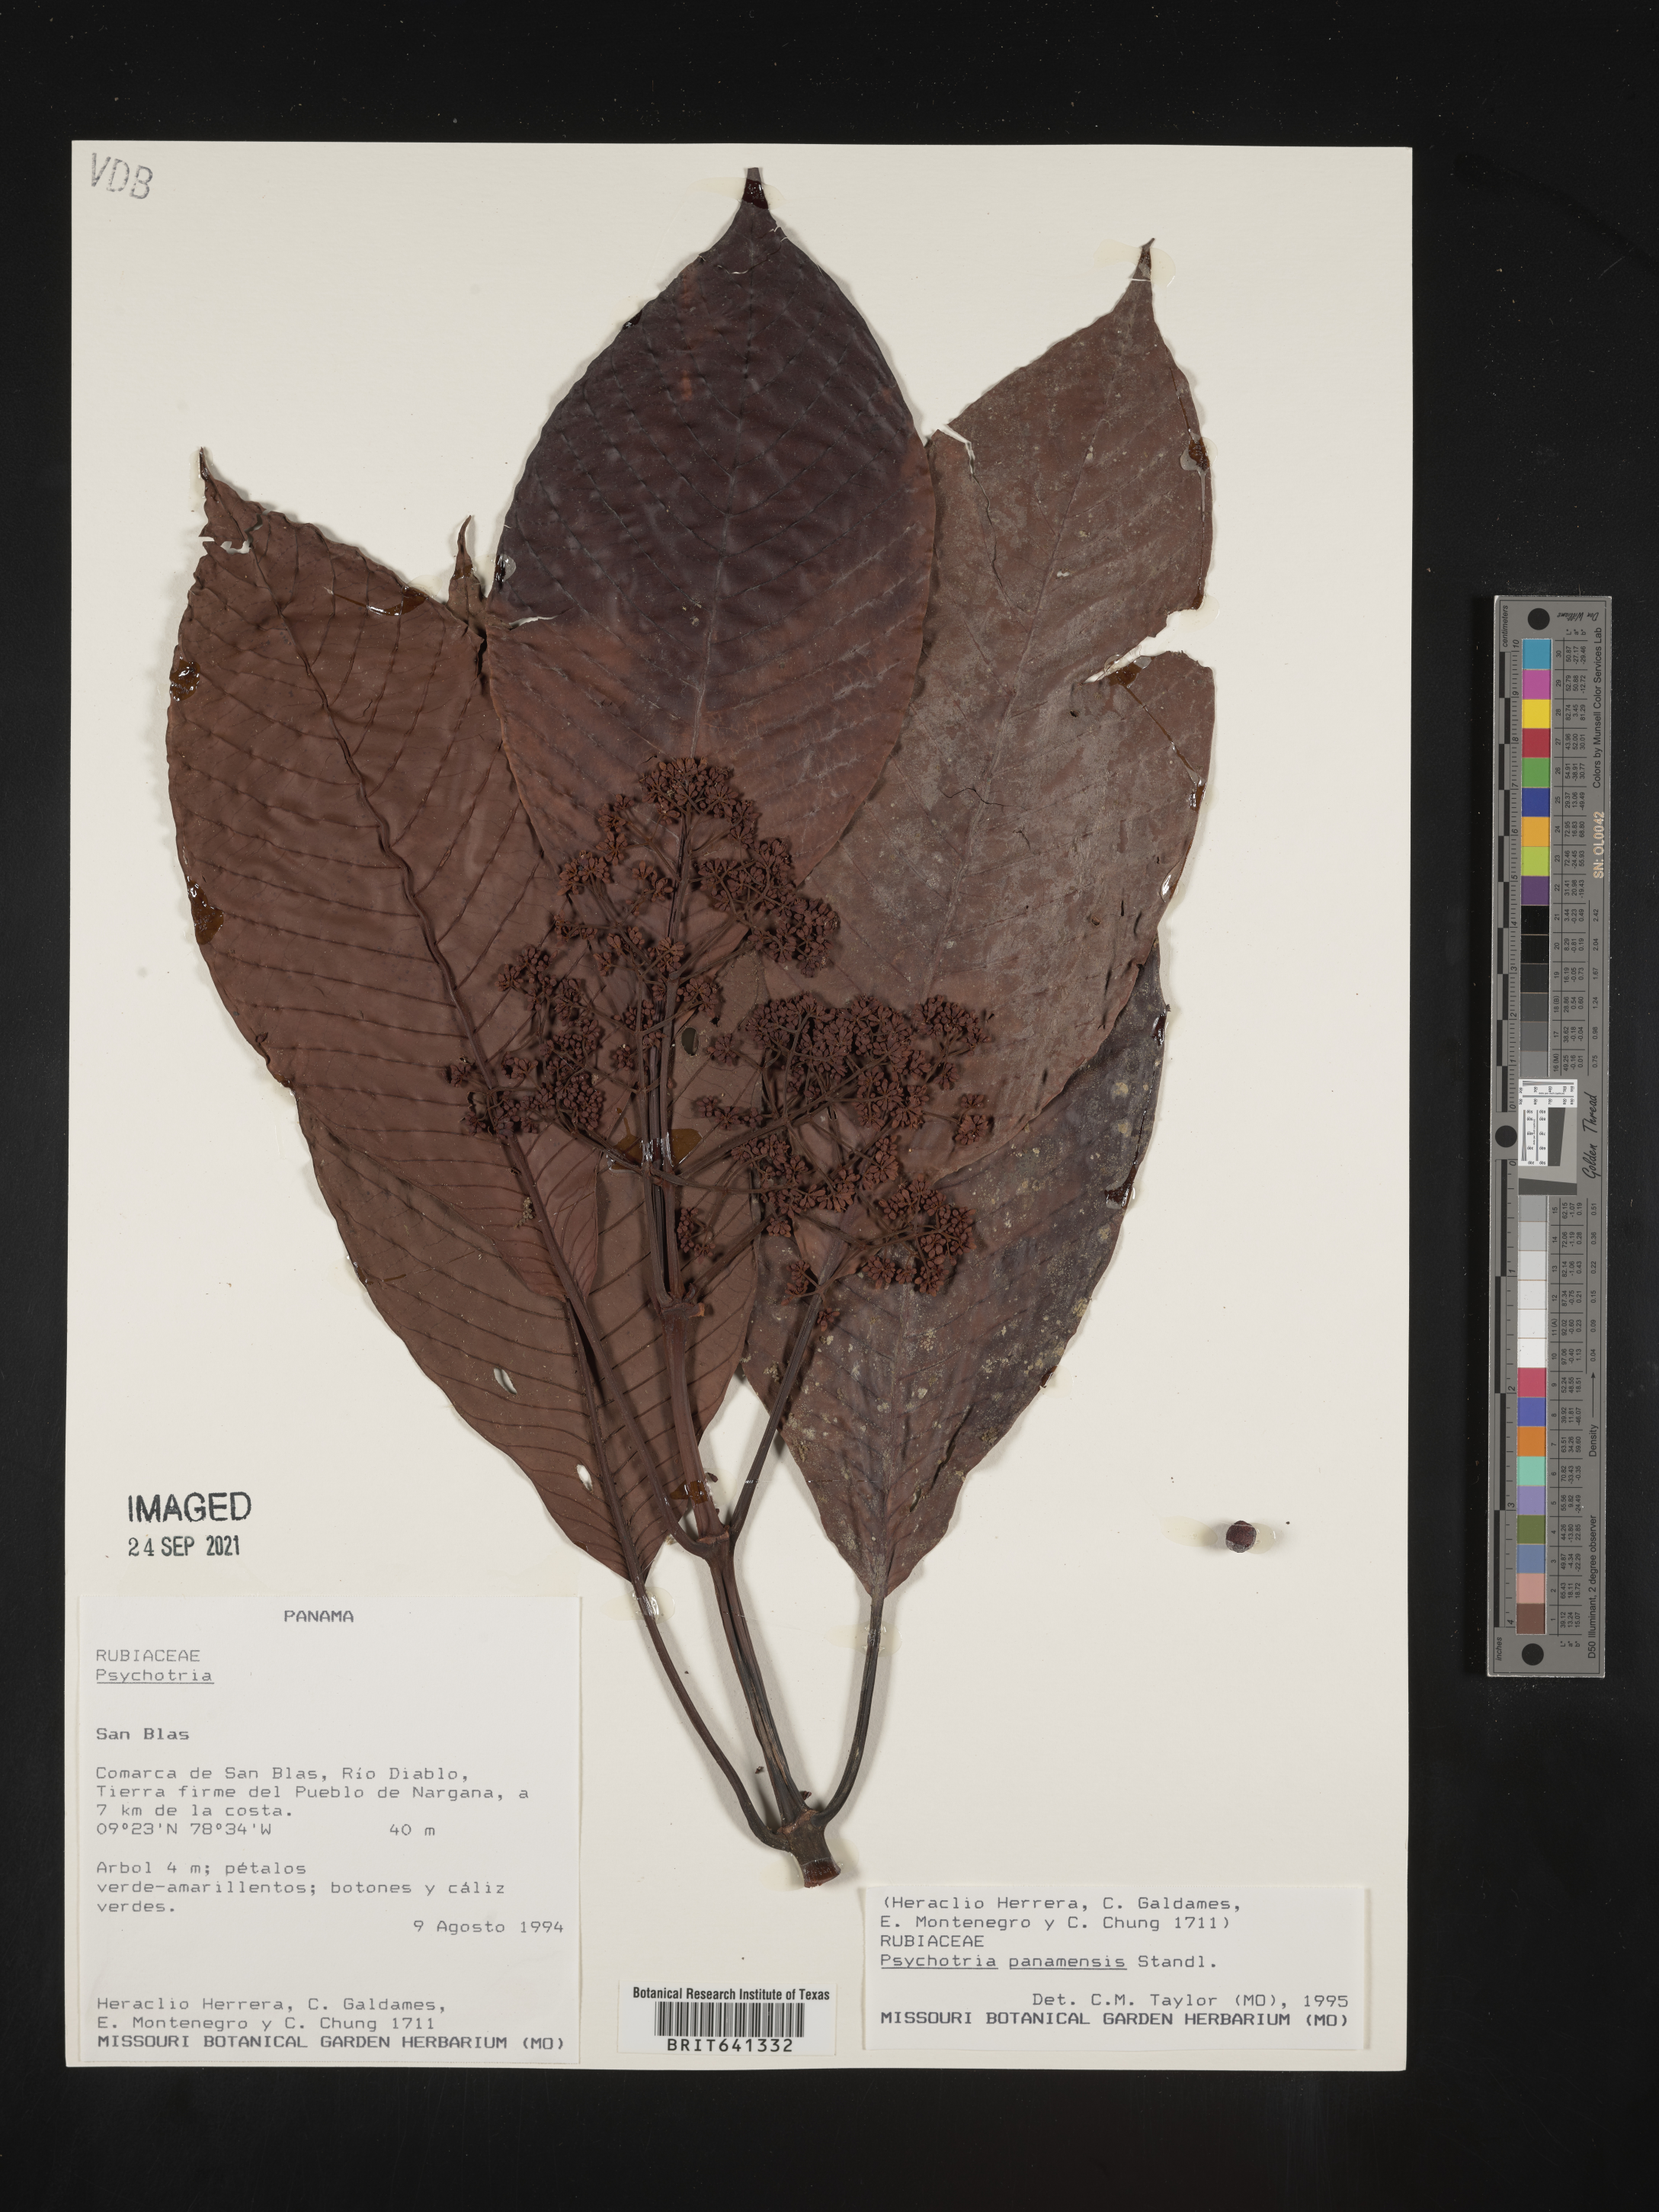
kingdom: Plantae
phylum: Tracheophyta
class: Magnoliopsida
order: Gentianales
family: Rubiaceae
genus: Psychotria
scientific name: Psychotria
